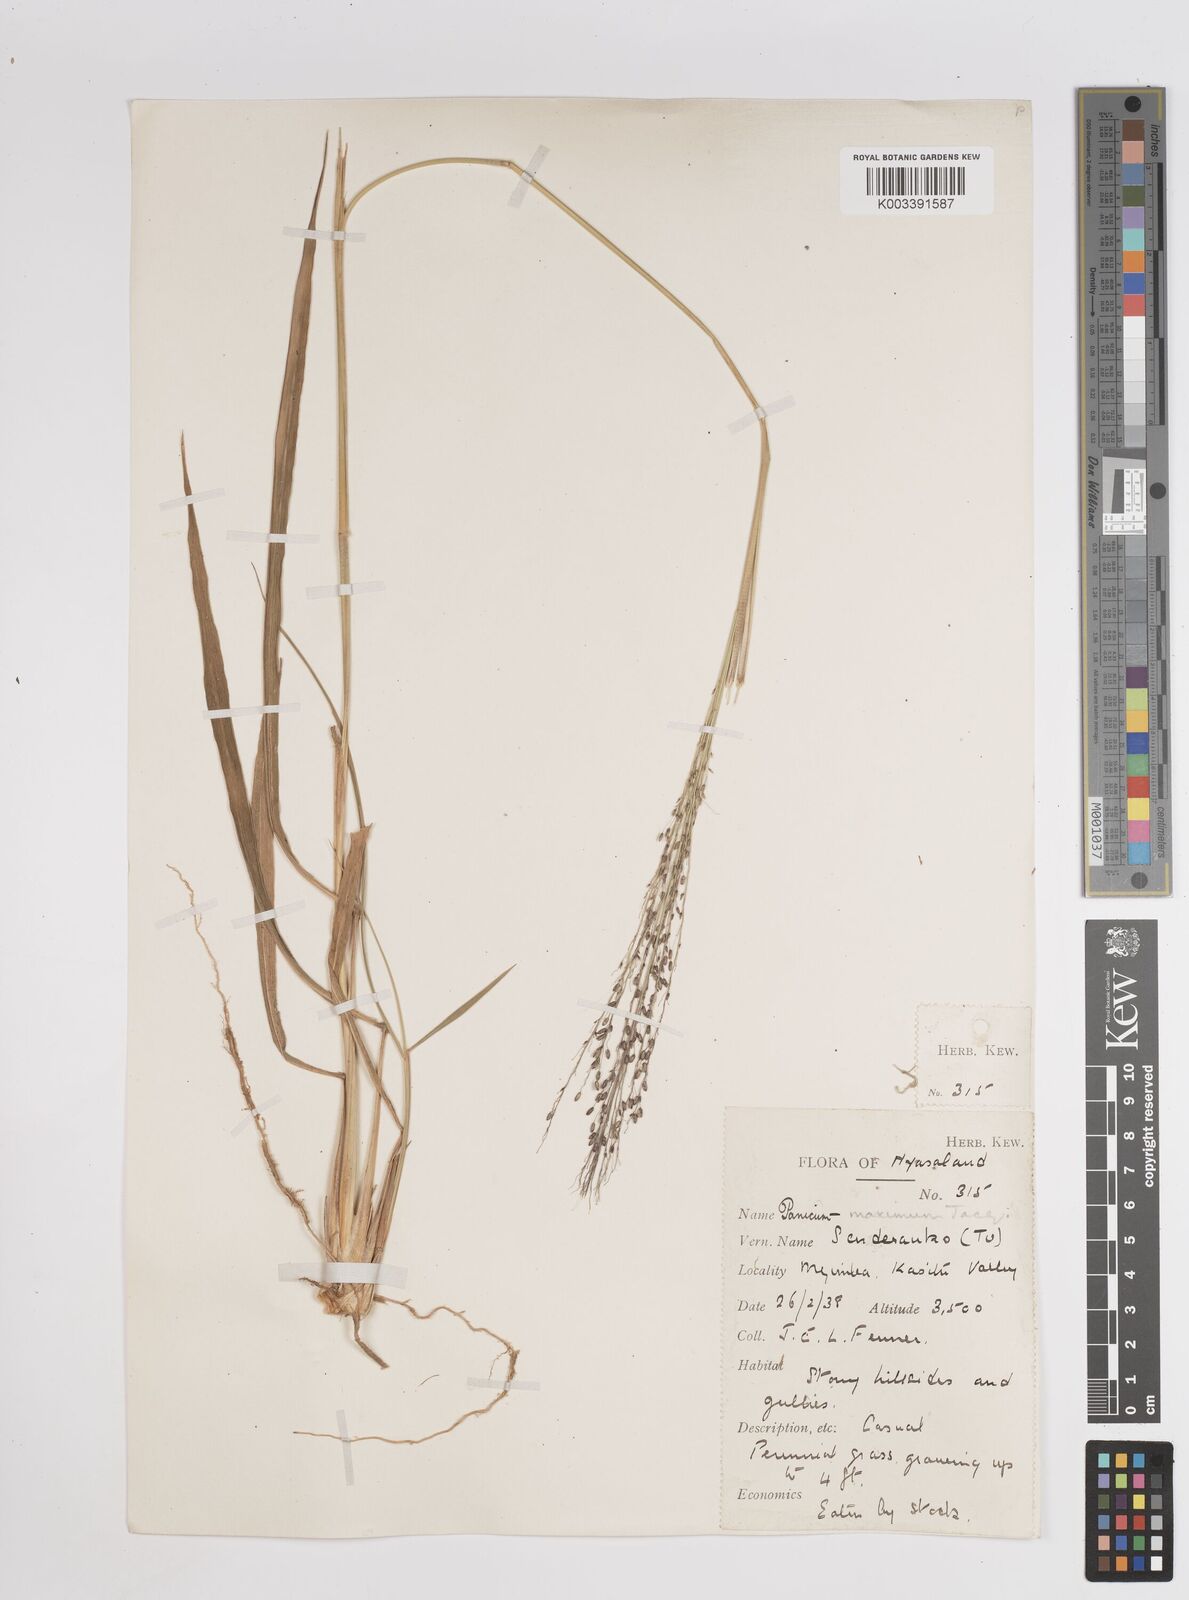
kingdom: Plantae
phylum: Tracheophyta
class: Liliopsida
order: Poales
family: Poaceae
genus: Megathyrsus
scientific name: Megathyrsus maximus
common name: Guineagrass
